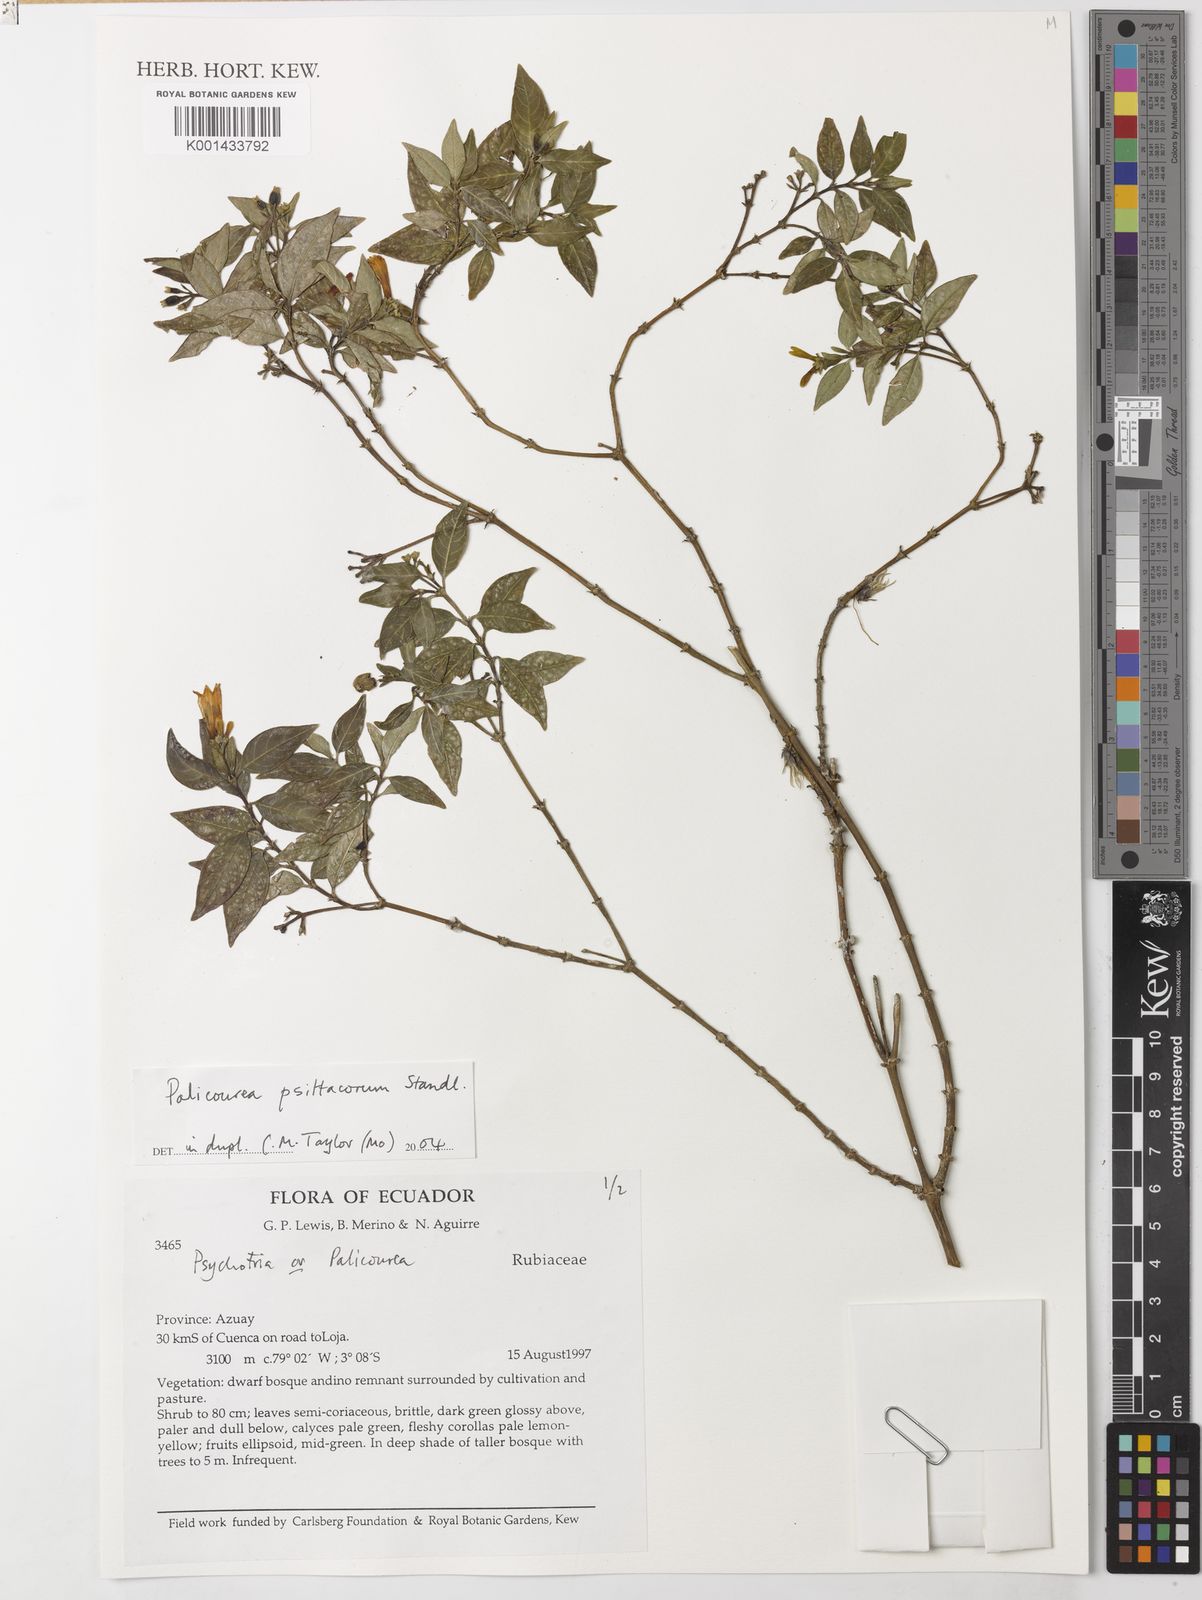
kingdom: Plantae
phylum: Tracheophyta
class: Magnoliopsida
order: Gentianales
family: Rubiaceae
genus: Palicourea
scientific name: Palicourea psittacorum
